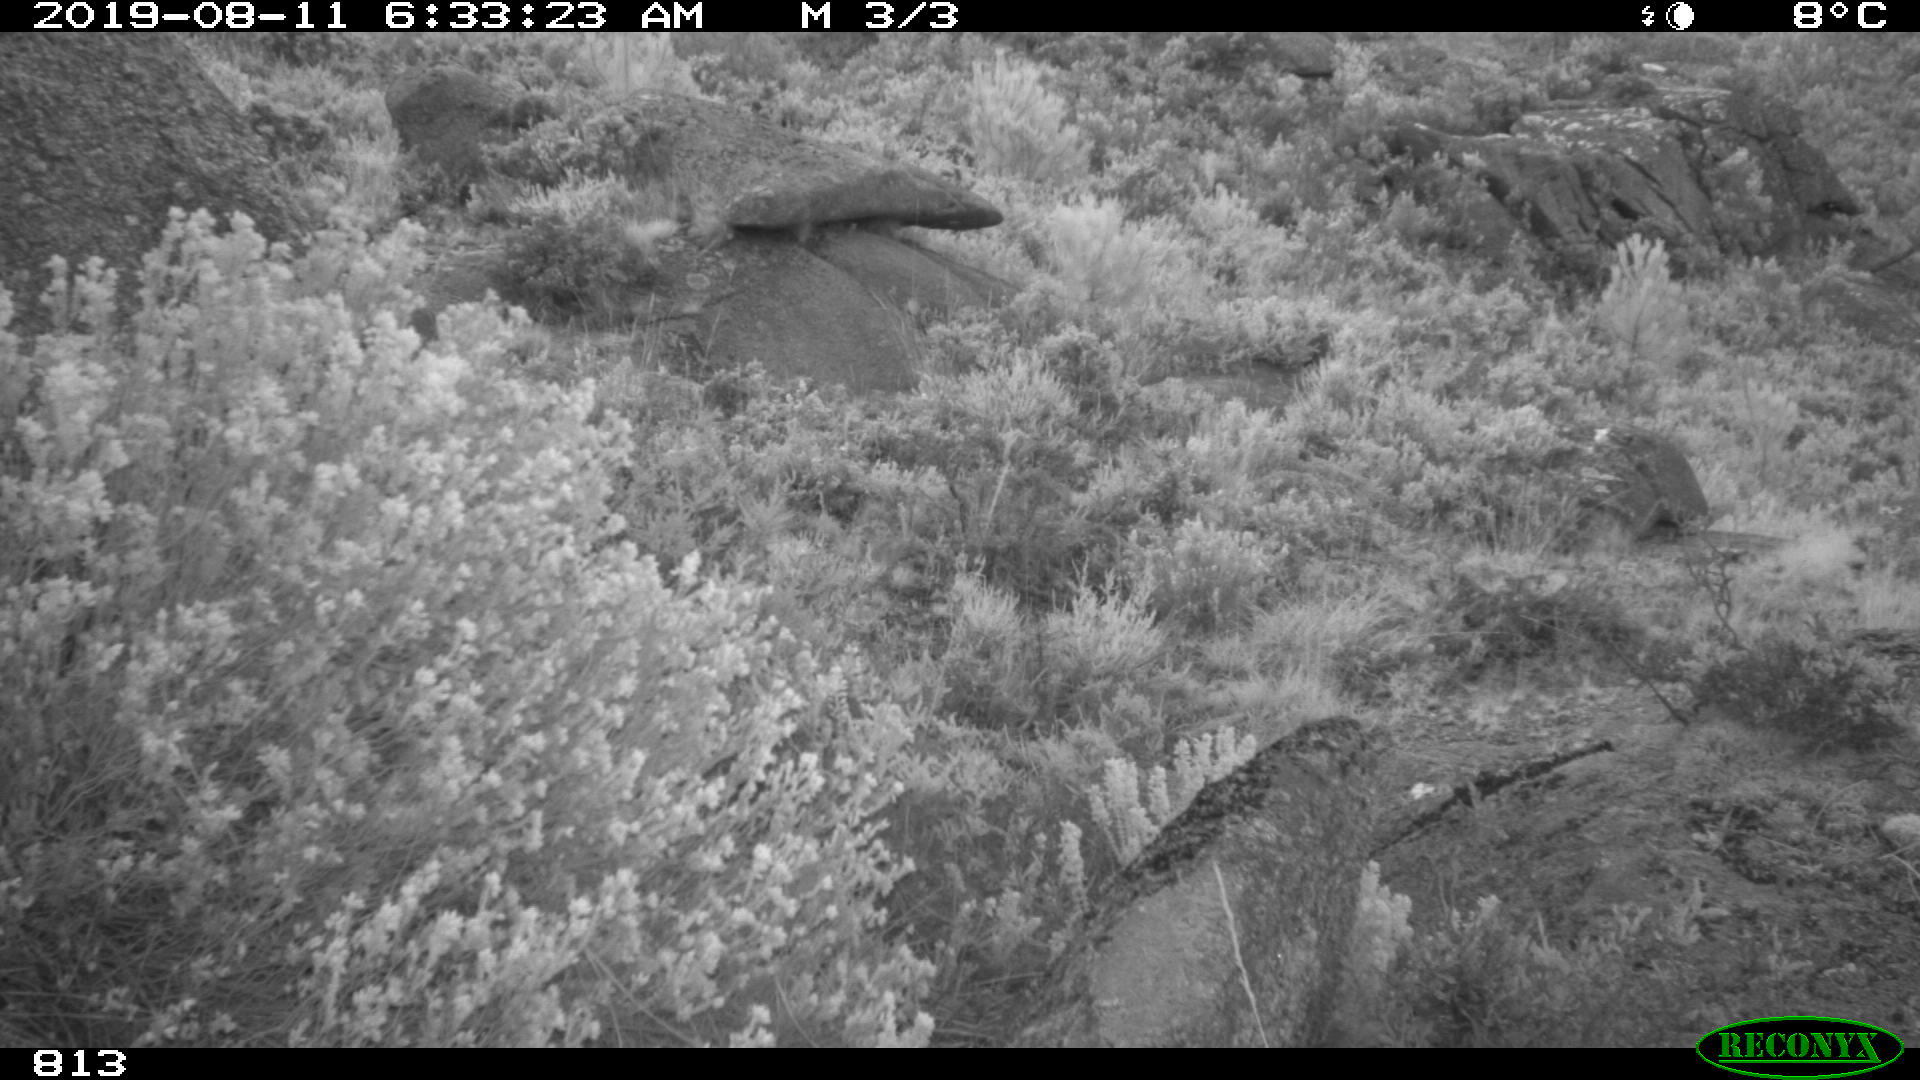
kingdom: Animalia
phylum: Chordata
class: Mammalia
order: Artiodactyla
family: Suidae
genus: Sus
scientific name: Sus scrofa
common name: Wild boar
